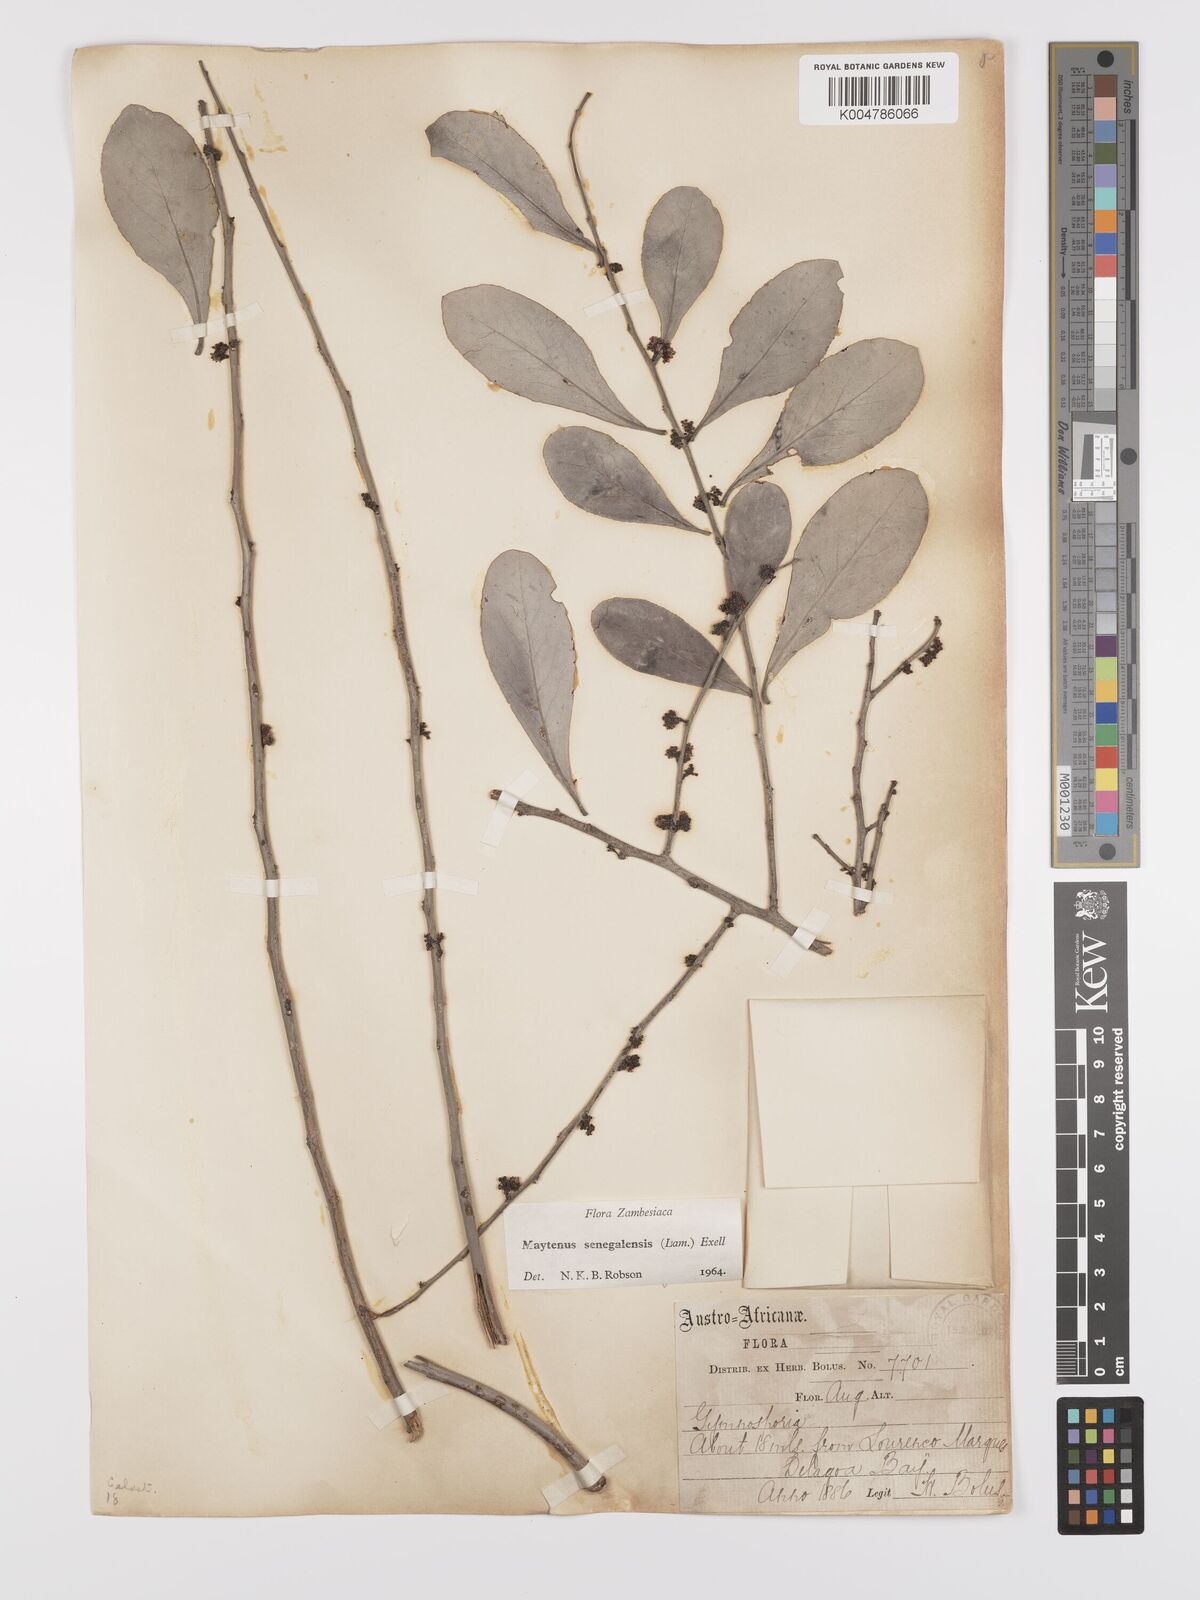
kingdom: Plantae
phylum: Tracheophyta
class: Magnoliopsida
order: Celastrales
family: Celastraceae
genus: Gymnosporia
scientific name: Gymnosporia senegalensis
